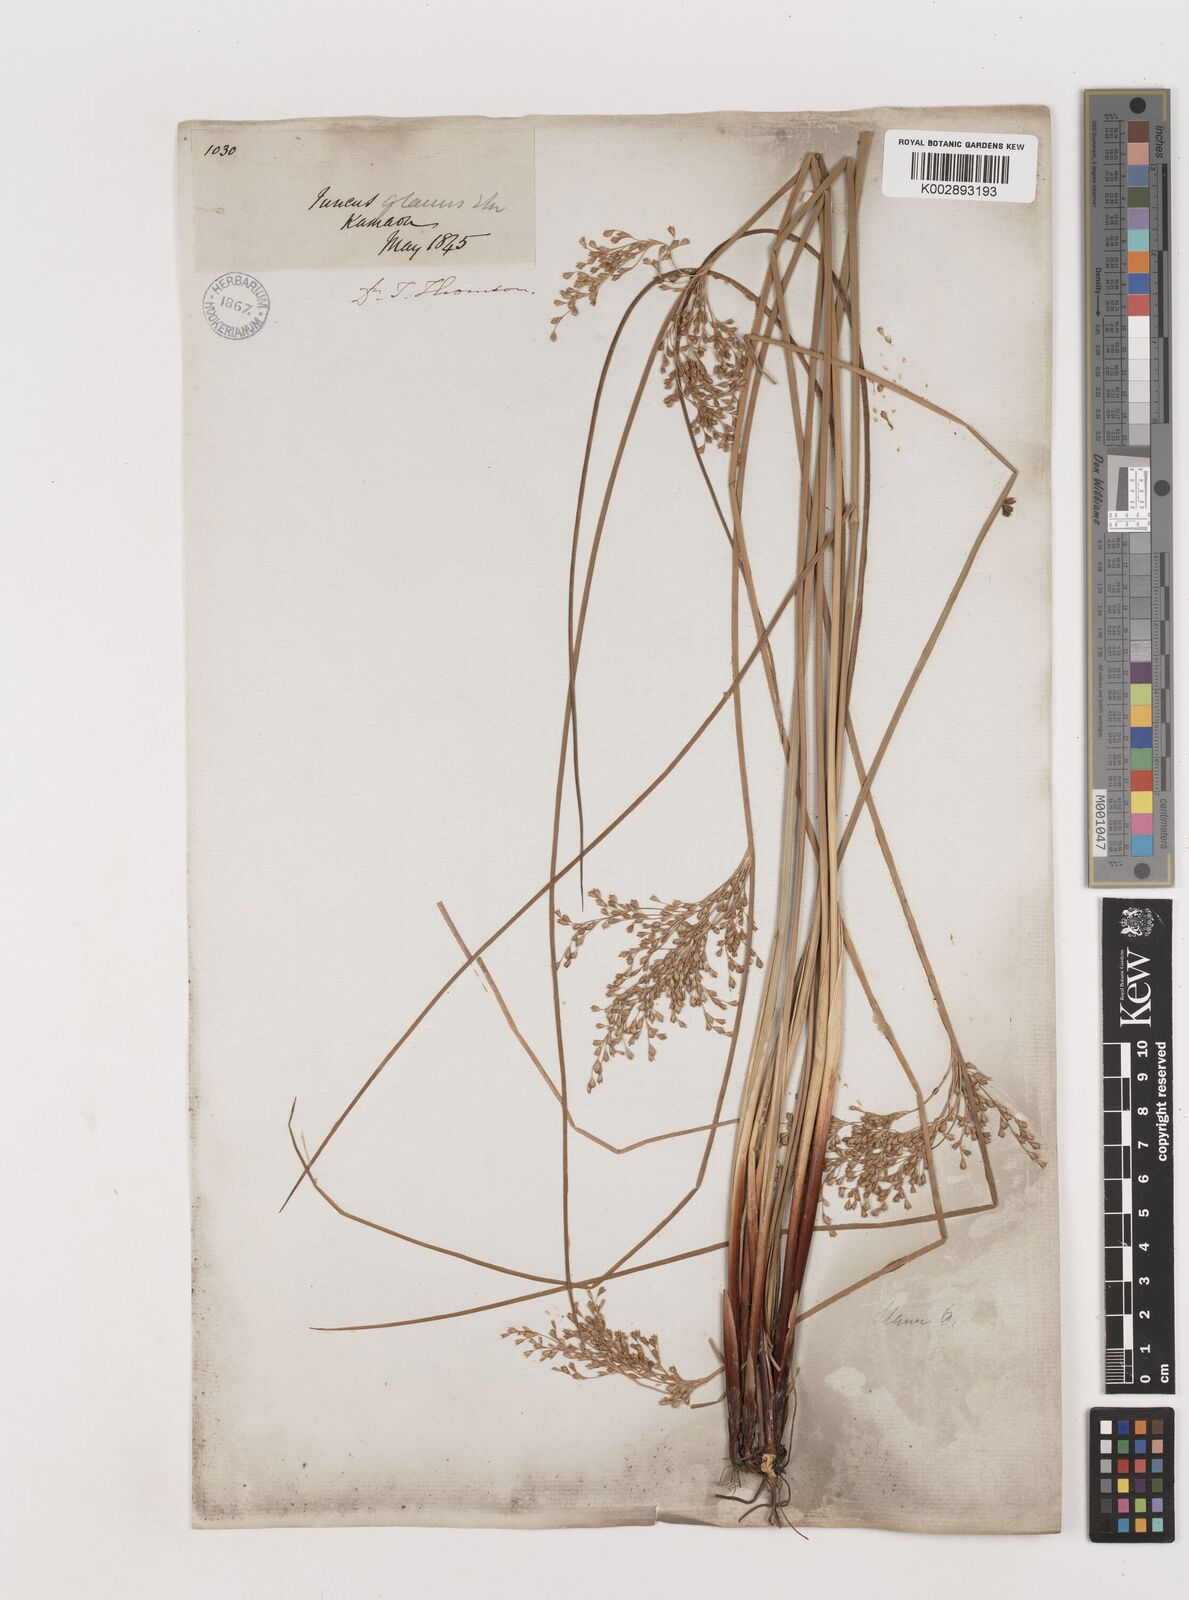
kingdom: Plantae
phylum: Tracheophyta
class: Liliopsida
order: Poales
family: Juncaceae
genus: Juncus
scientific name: Juncus inflexus
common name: Hard rush
